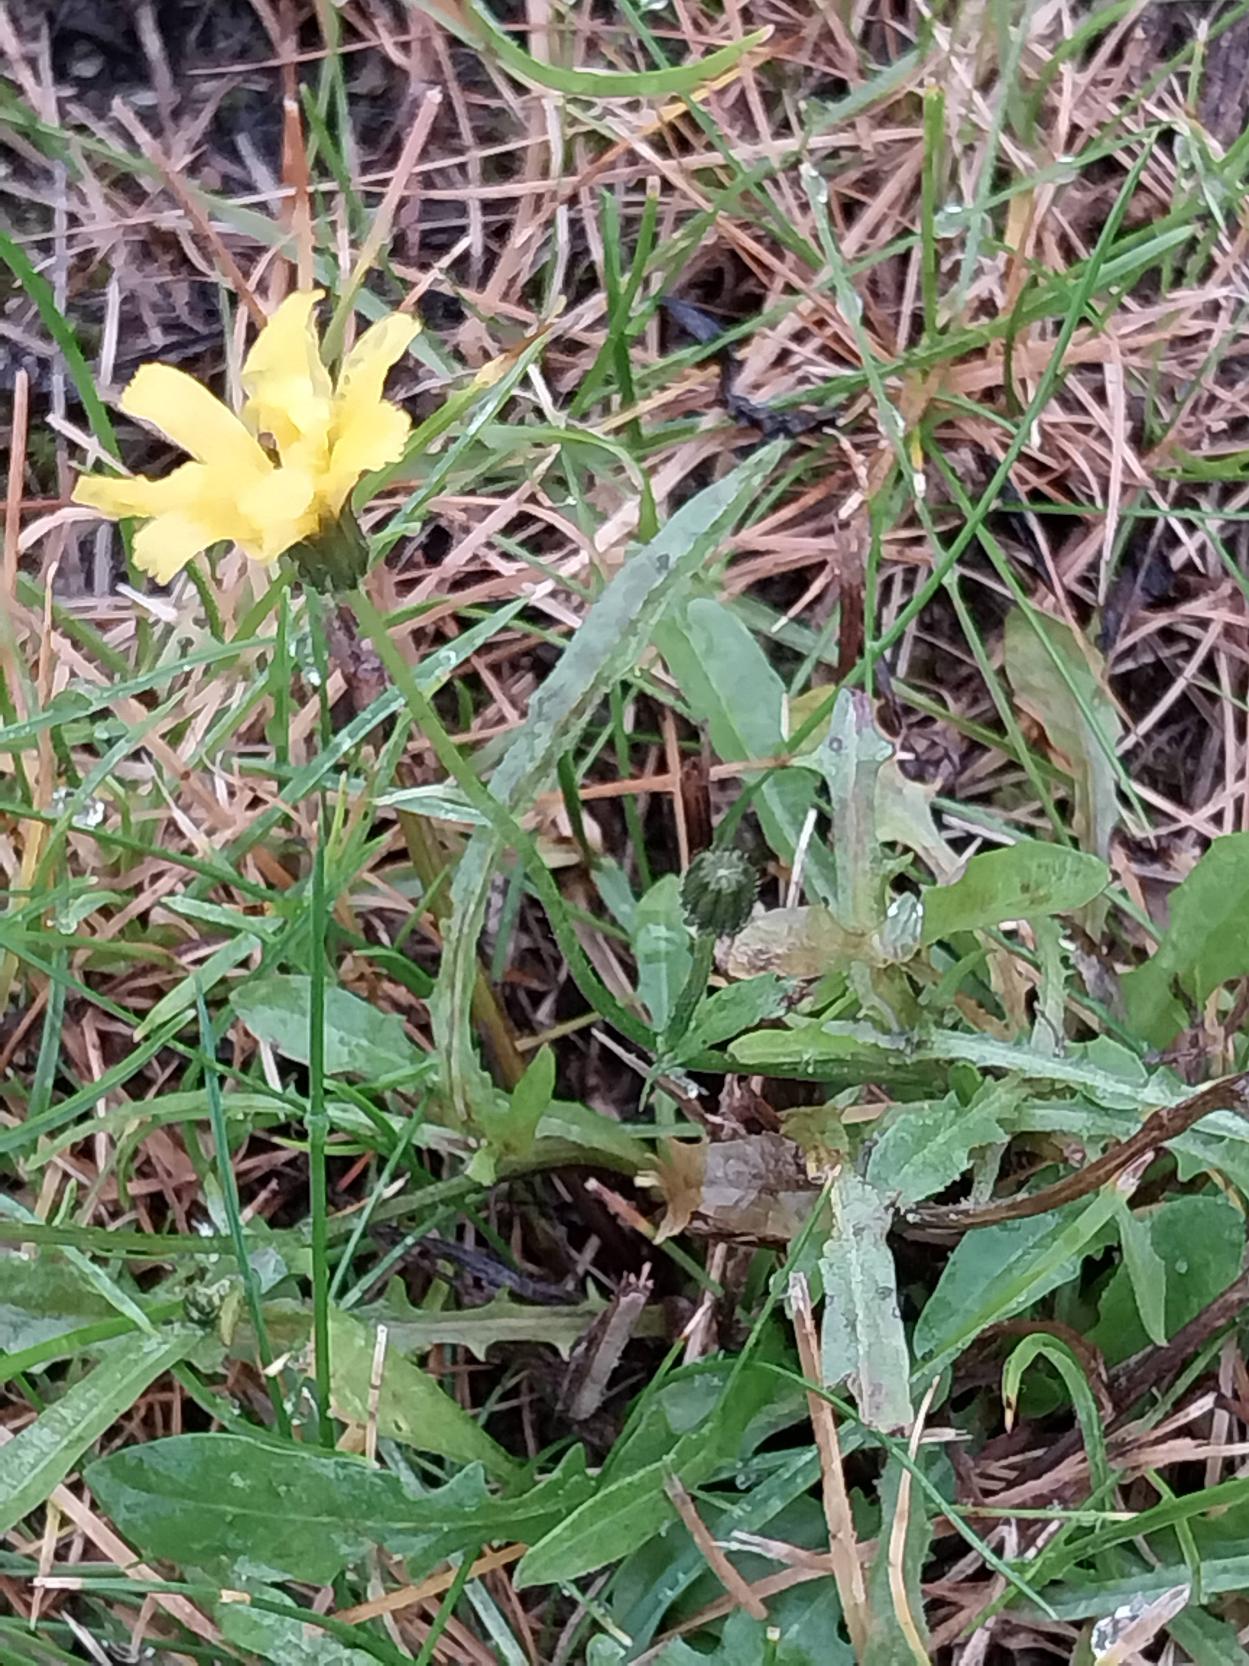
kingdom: Plantae
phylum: Tracheophyta
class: Magnoliopsida
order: Asterales
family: Asteraceae
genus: Crepis
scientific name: Crepis capillaris
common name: Grøn høgeskæg
